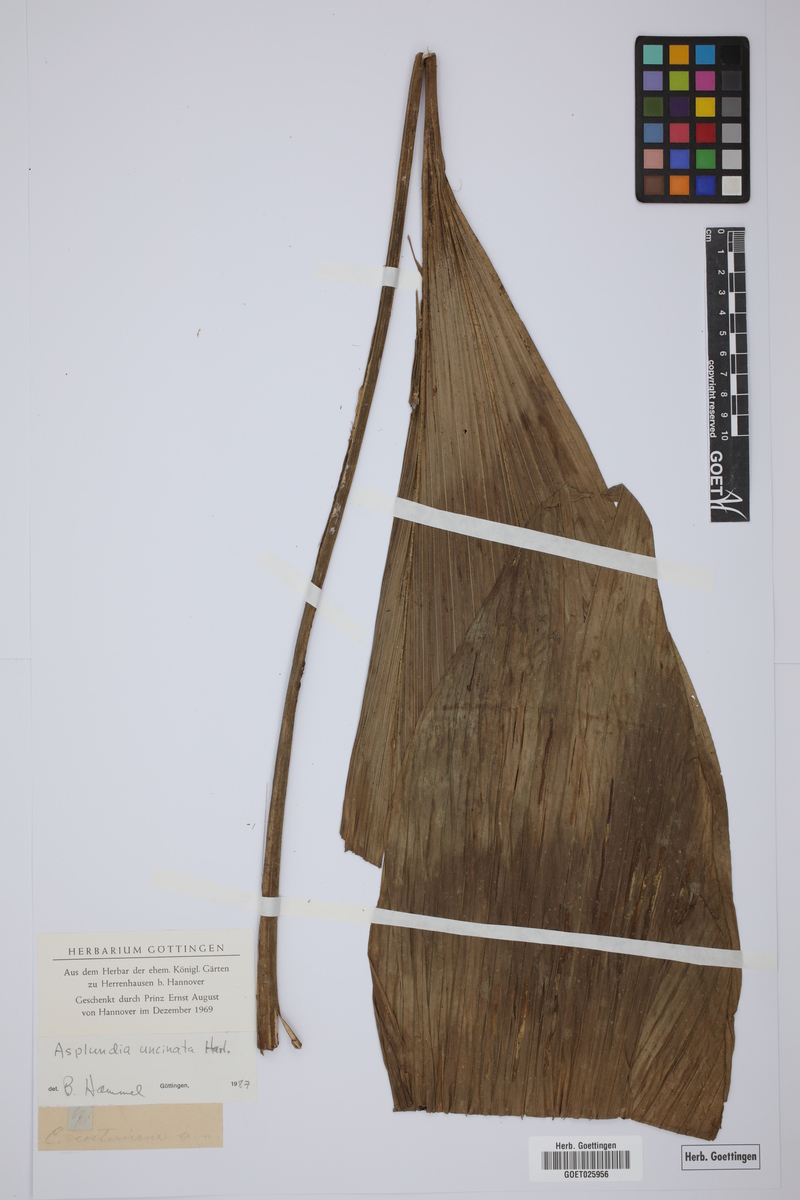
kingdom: Plantae
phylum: Tracheophyta
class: Liliopsida
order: Pandanales
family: Cyclanthaceae
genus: Asplundia
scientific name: Asplundia uncinata
